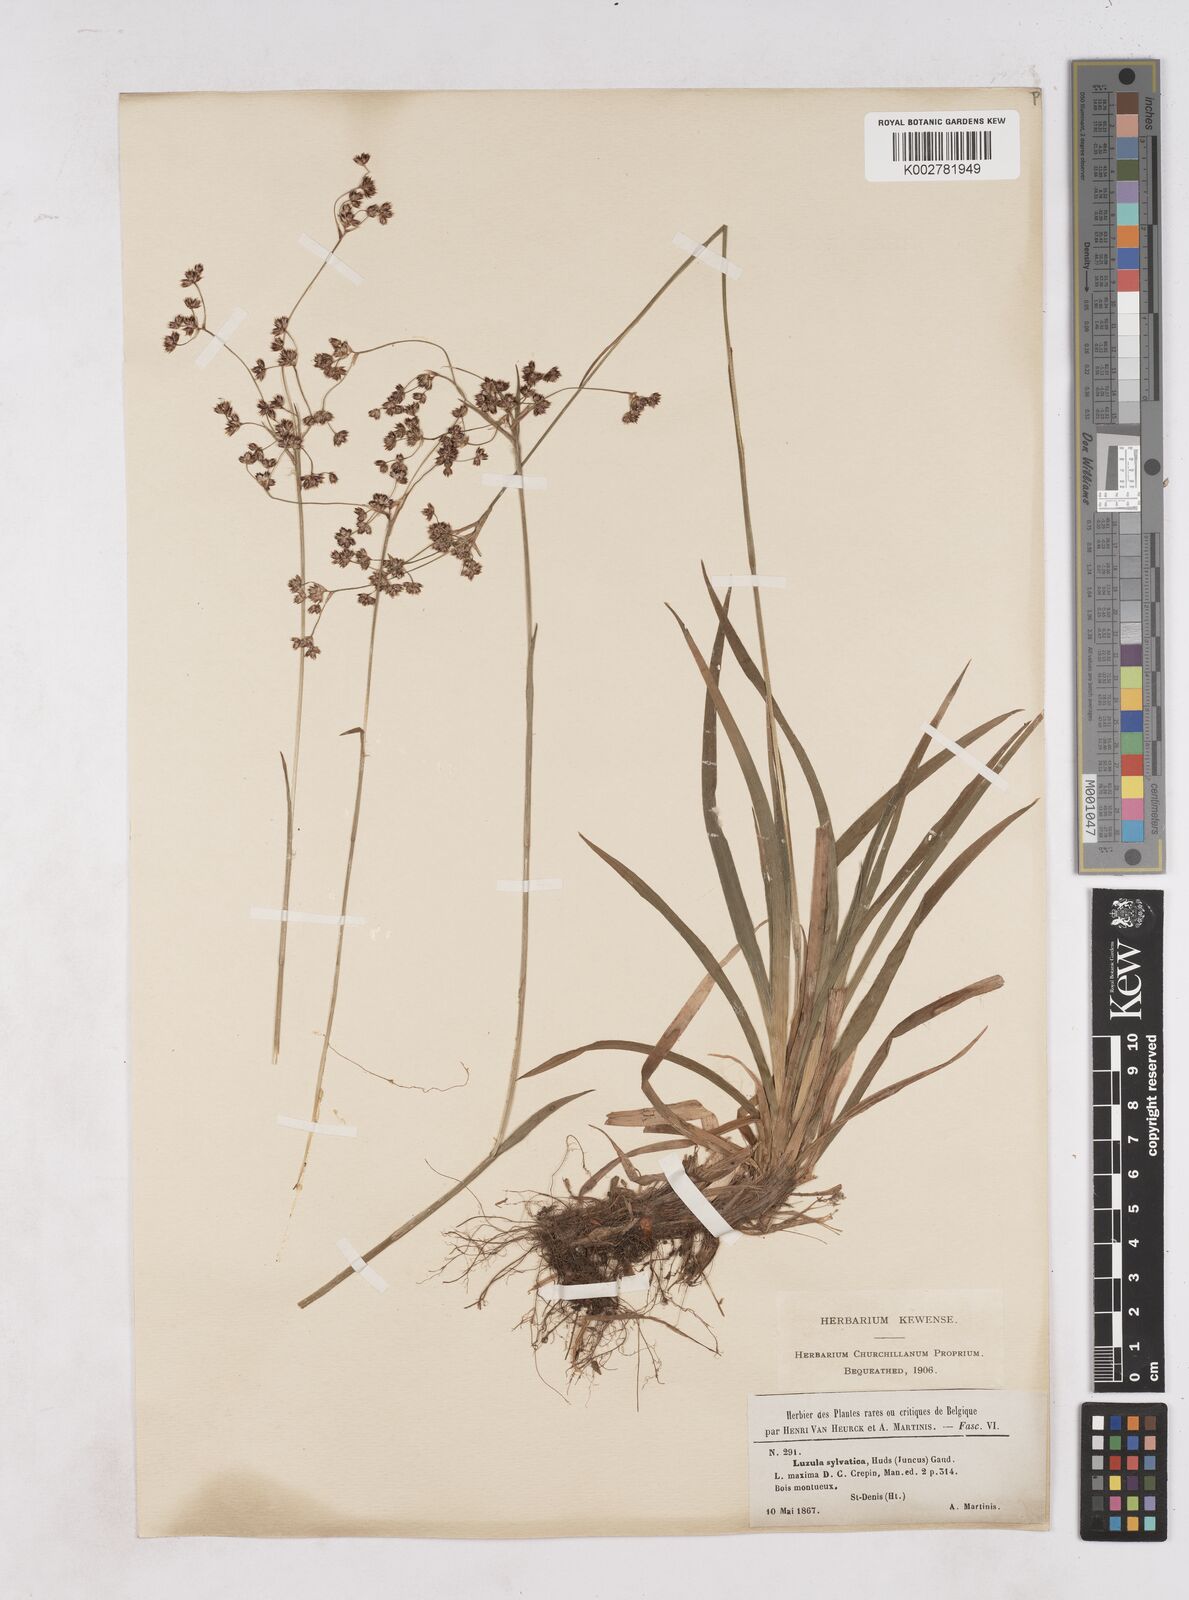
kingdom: Plantae
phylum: Tracheophyta
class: Liliopsida
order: Poales
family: Juncaceae
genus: Luzula
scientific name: Luzula sylvatica
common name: Great wood-rush
